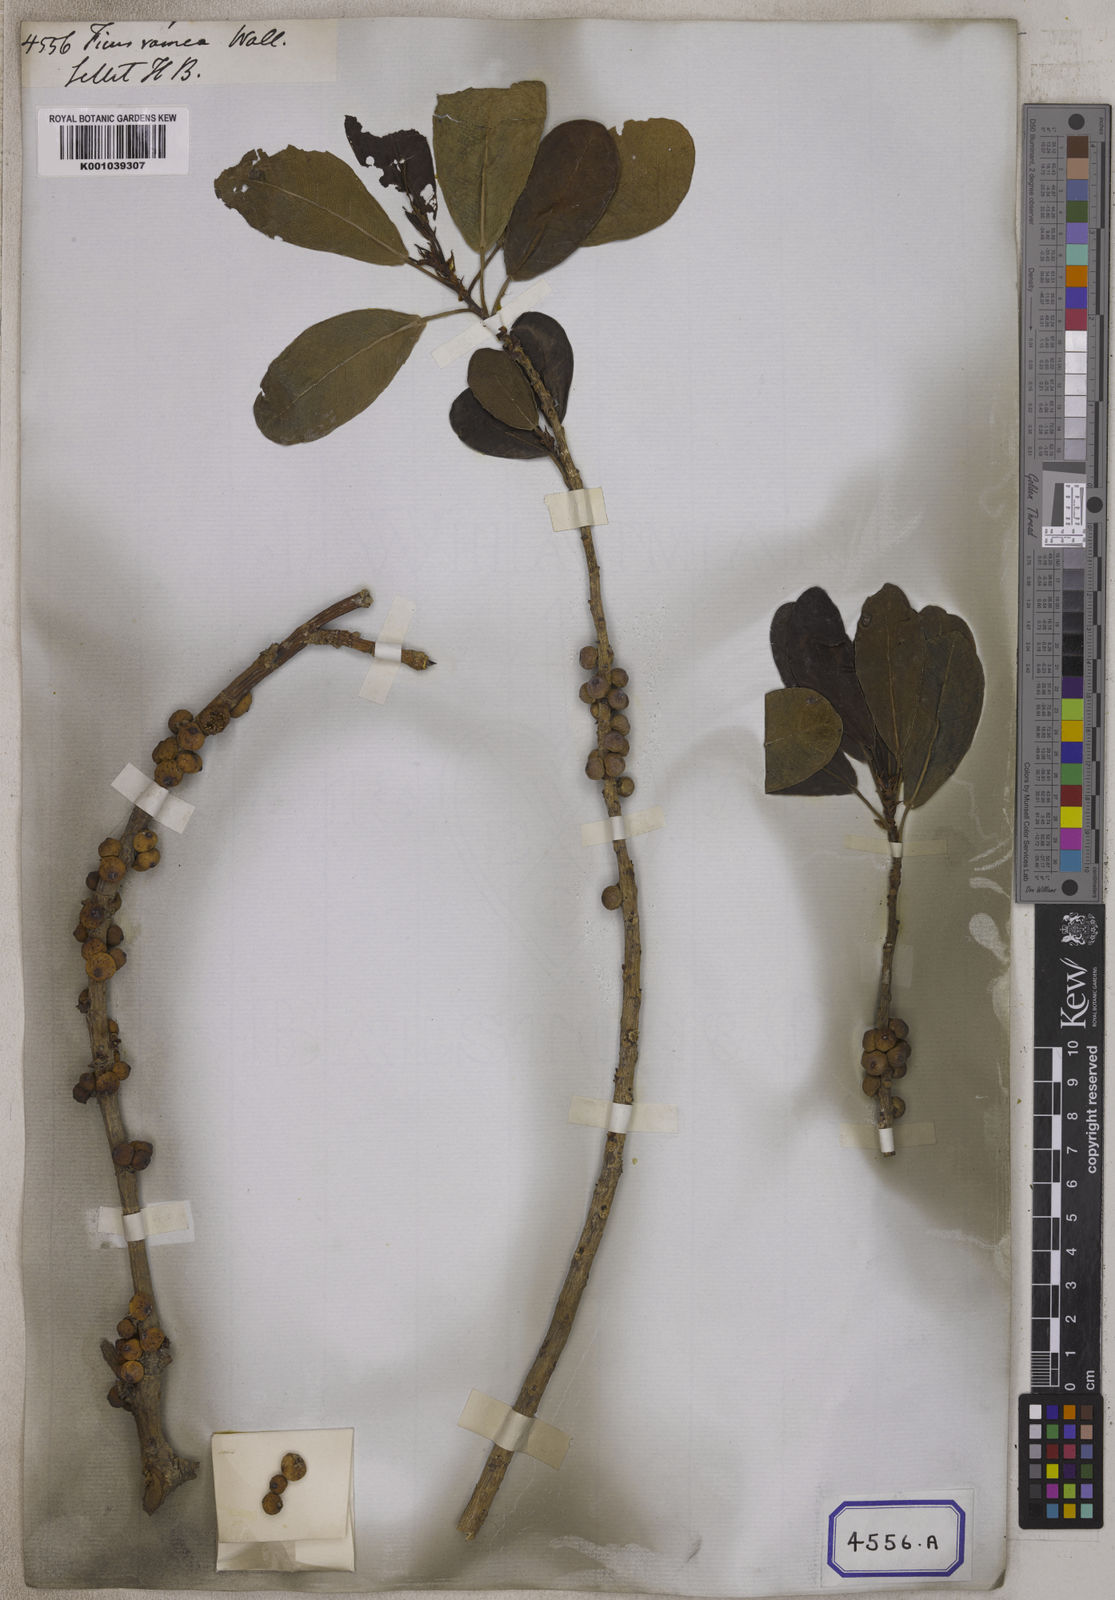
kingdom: Plantae
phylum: Tracheophyta
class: Magnoliopsida
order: Rosales
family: Moraceae
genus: Ficus
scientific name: Ficus
